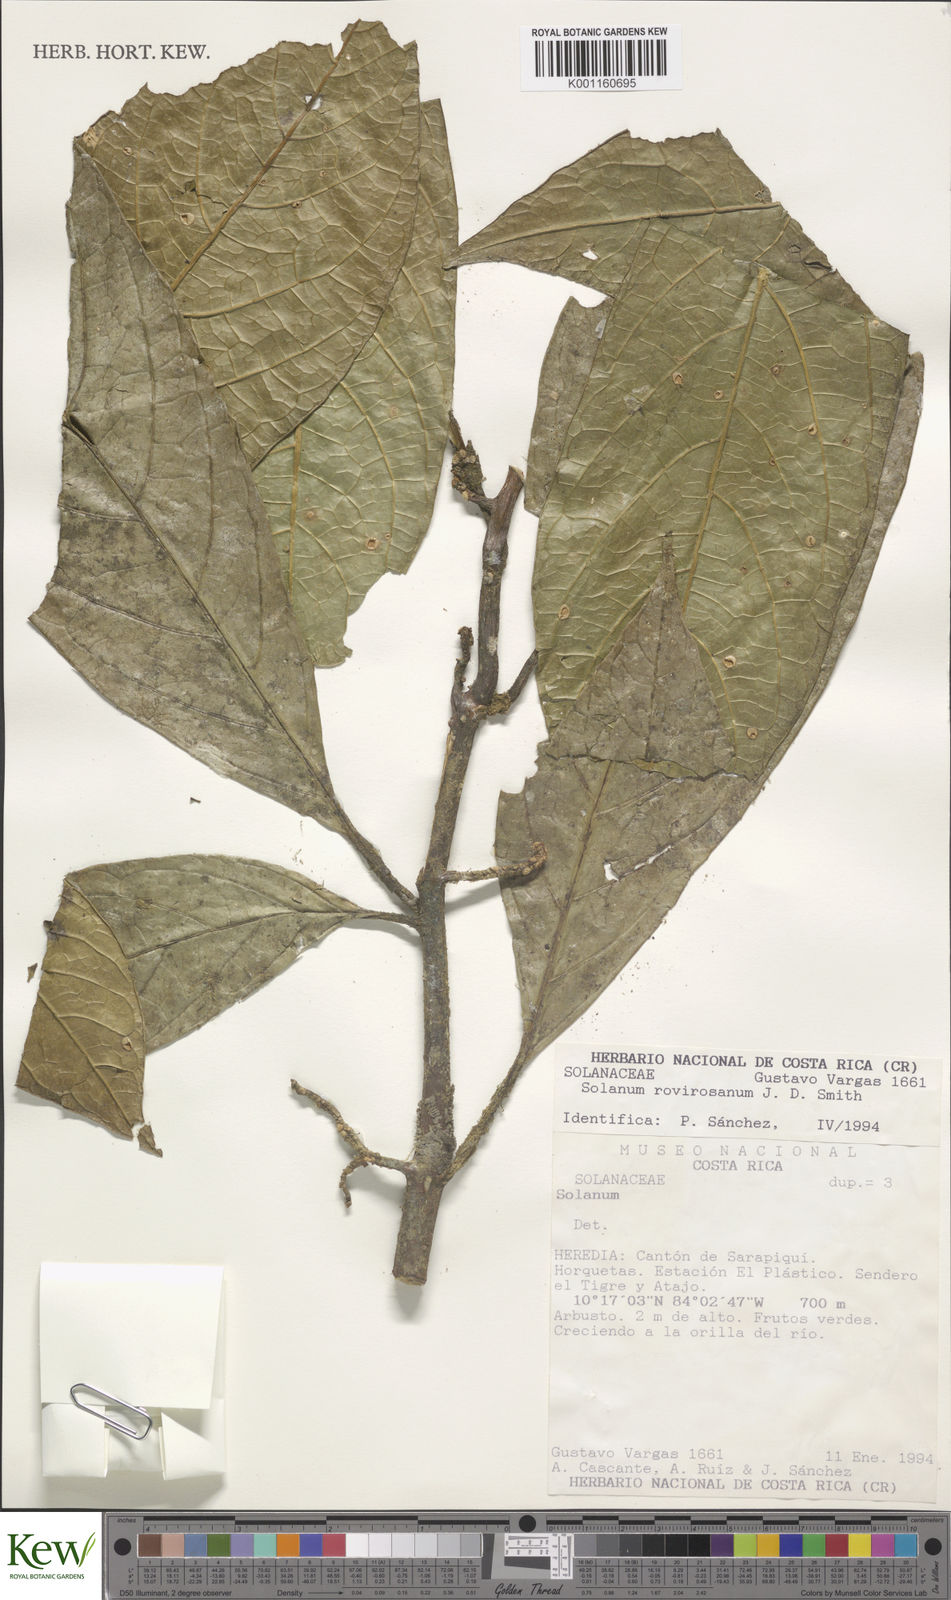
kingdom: Plantae
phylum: Tracheophyta
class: Magnoliopsida
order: Solanales
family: Solanaceae
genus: Solanum
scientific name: Solanum rovirosanum
